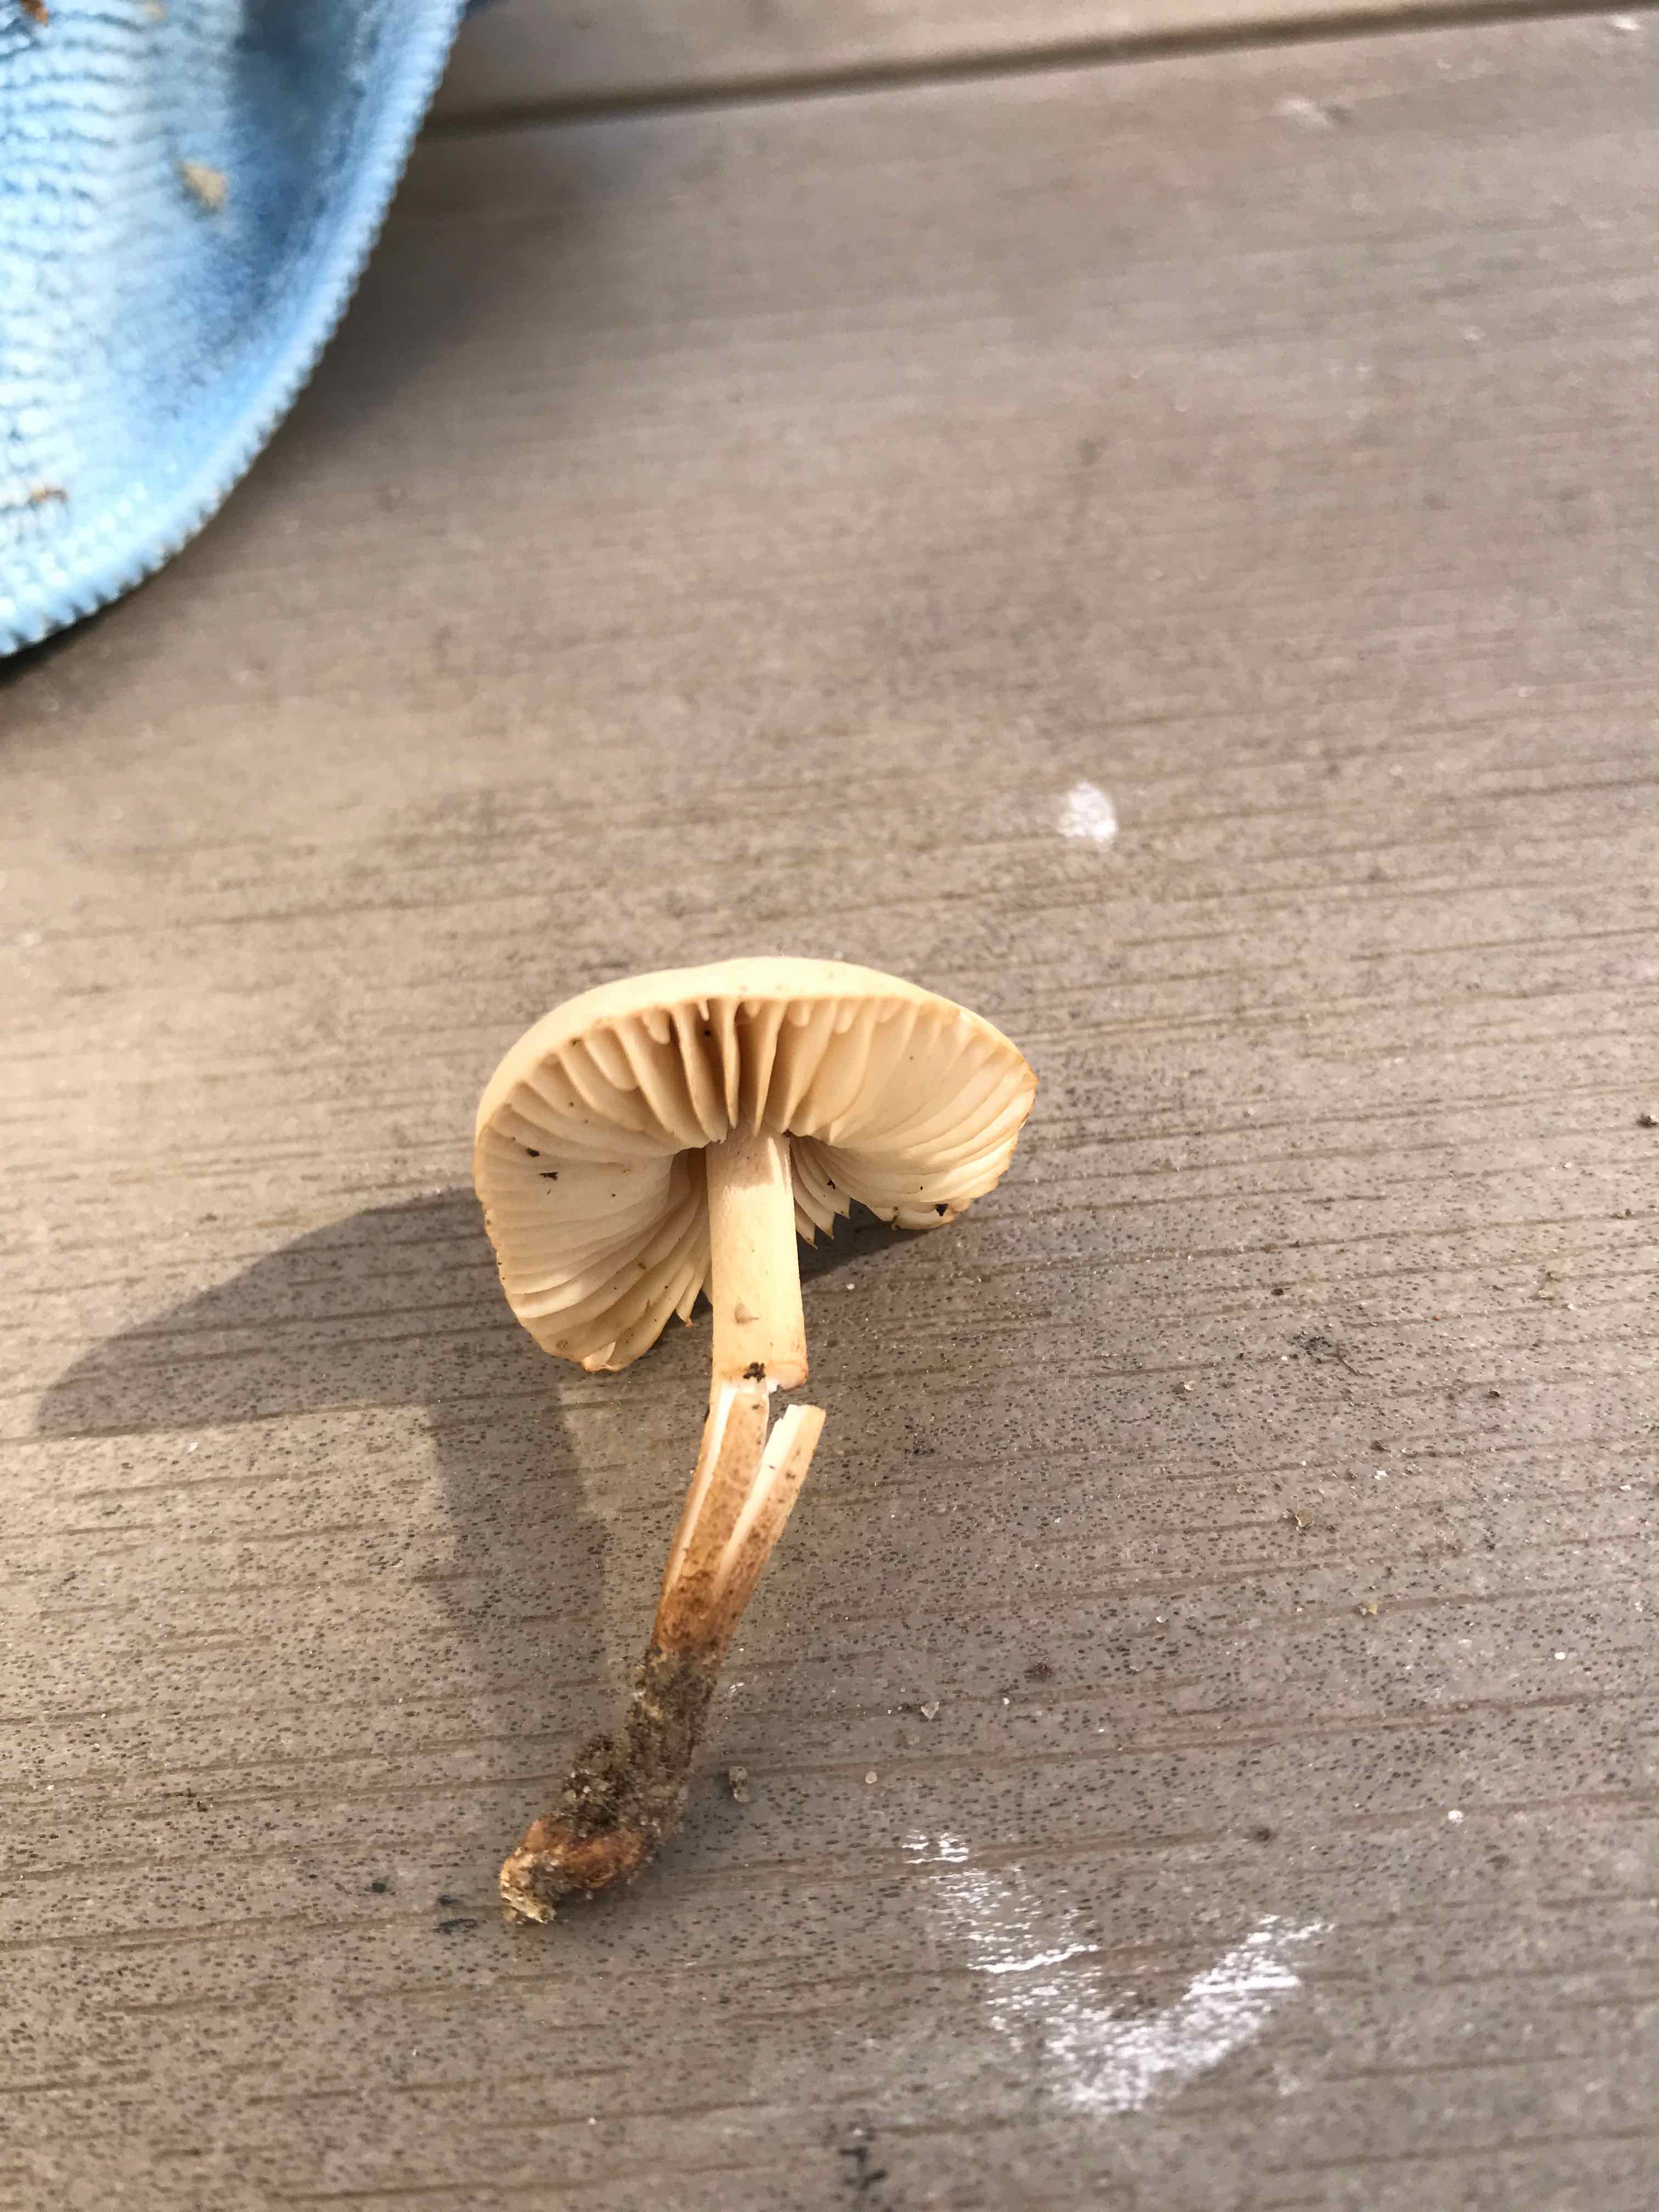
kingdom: Fungi
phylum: Basidiomycota
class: Agaricomycetes
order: Agaricales
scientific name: Agaricales
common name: champignonordenen
